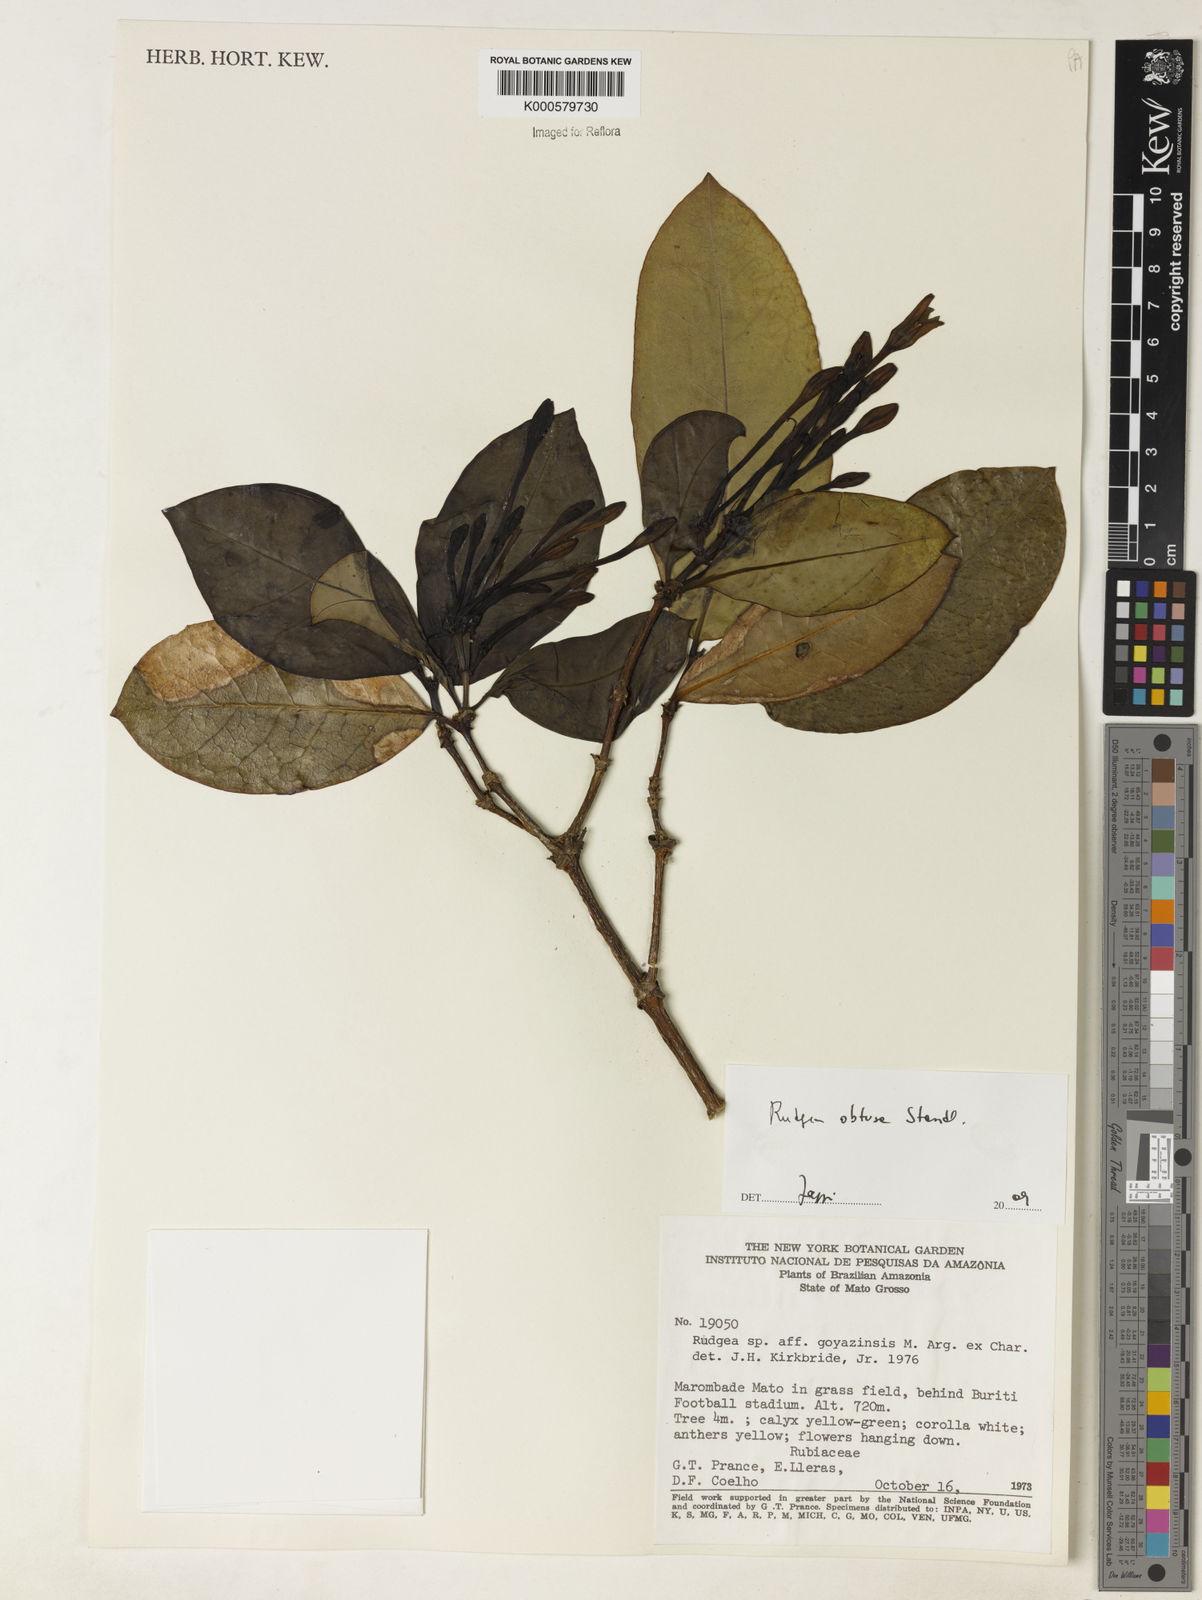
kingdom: Plantae
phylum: Tracheophyta
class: Magnoliopsida
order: Gentianales
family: Rubiaceae
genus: Rudgea
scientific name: Rudgea goyazensis
